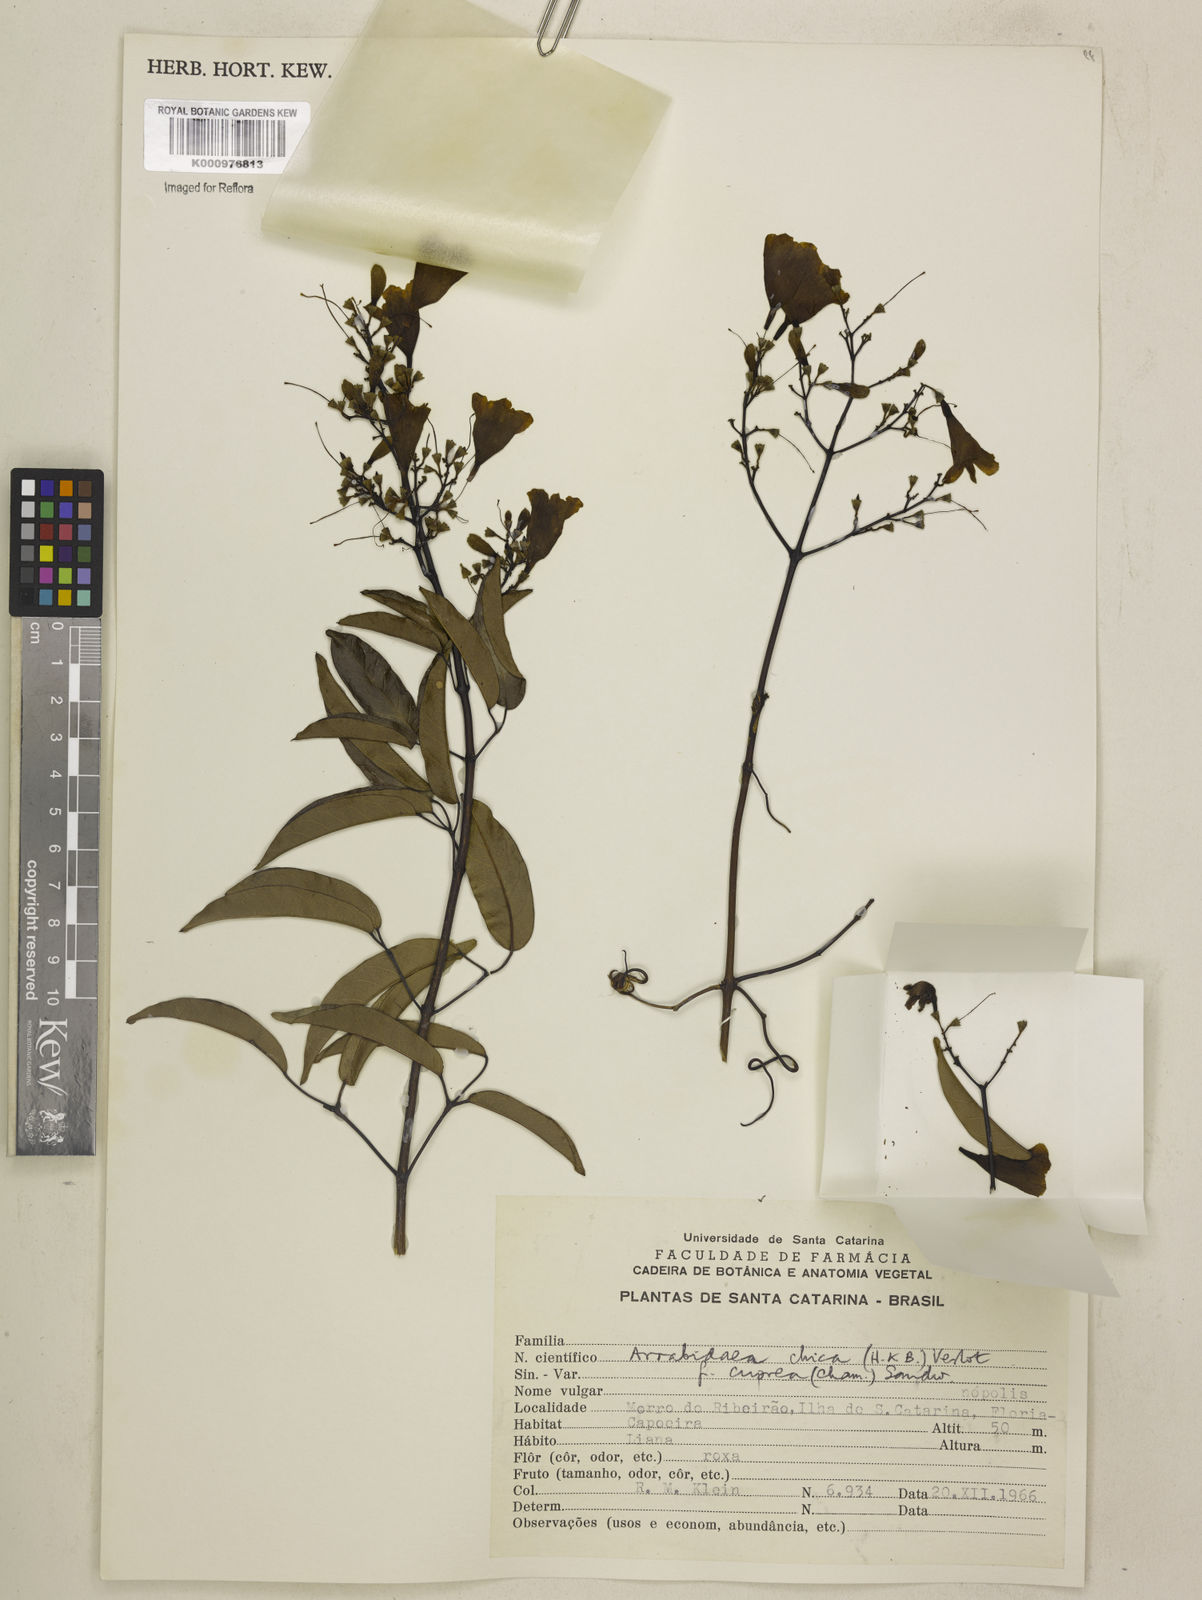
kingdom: Plantae
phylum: Tracheophyta
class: Magnoliopsida
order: Lamiales
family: Bignoniaceae
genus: Fridericia
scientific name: Fridericia chica
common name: Cricketvine
